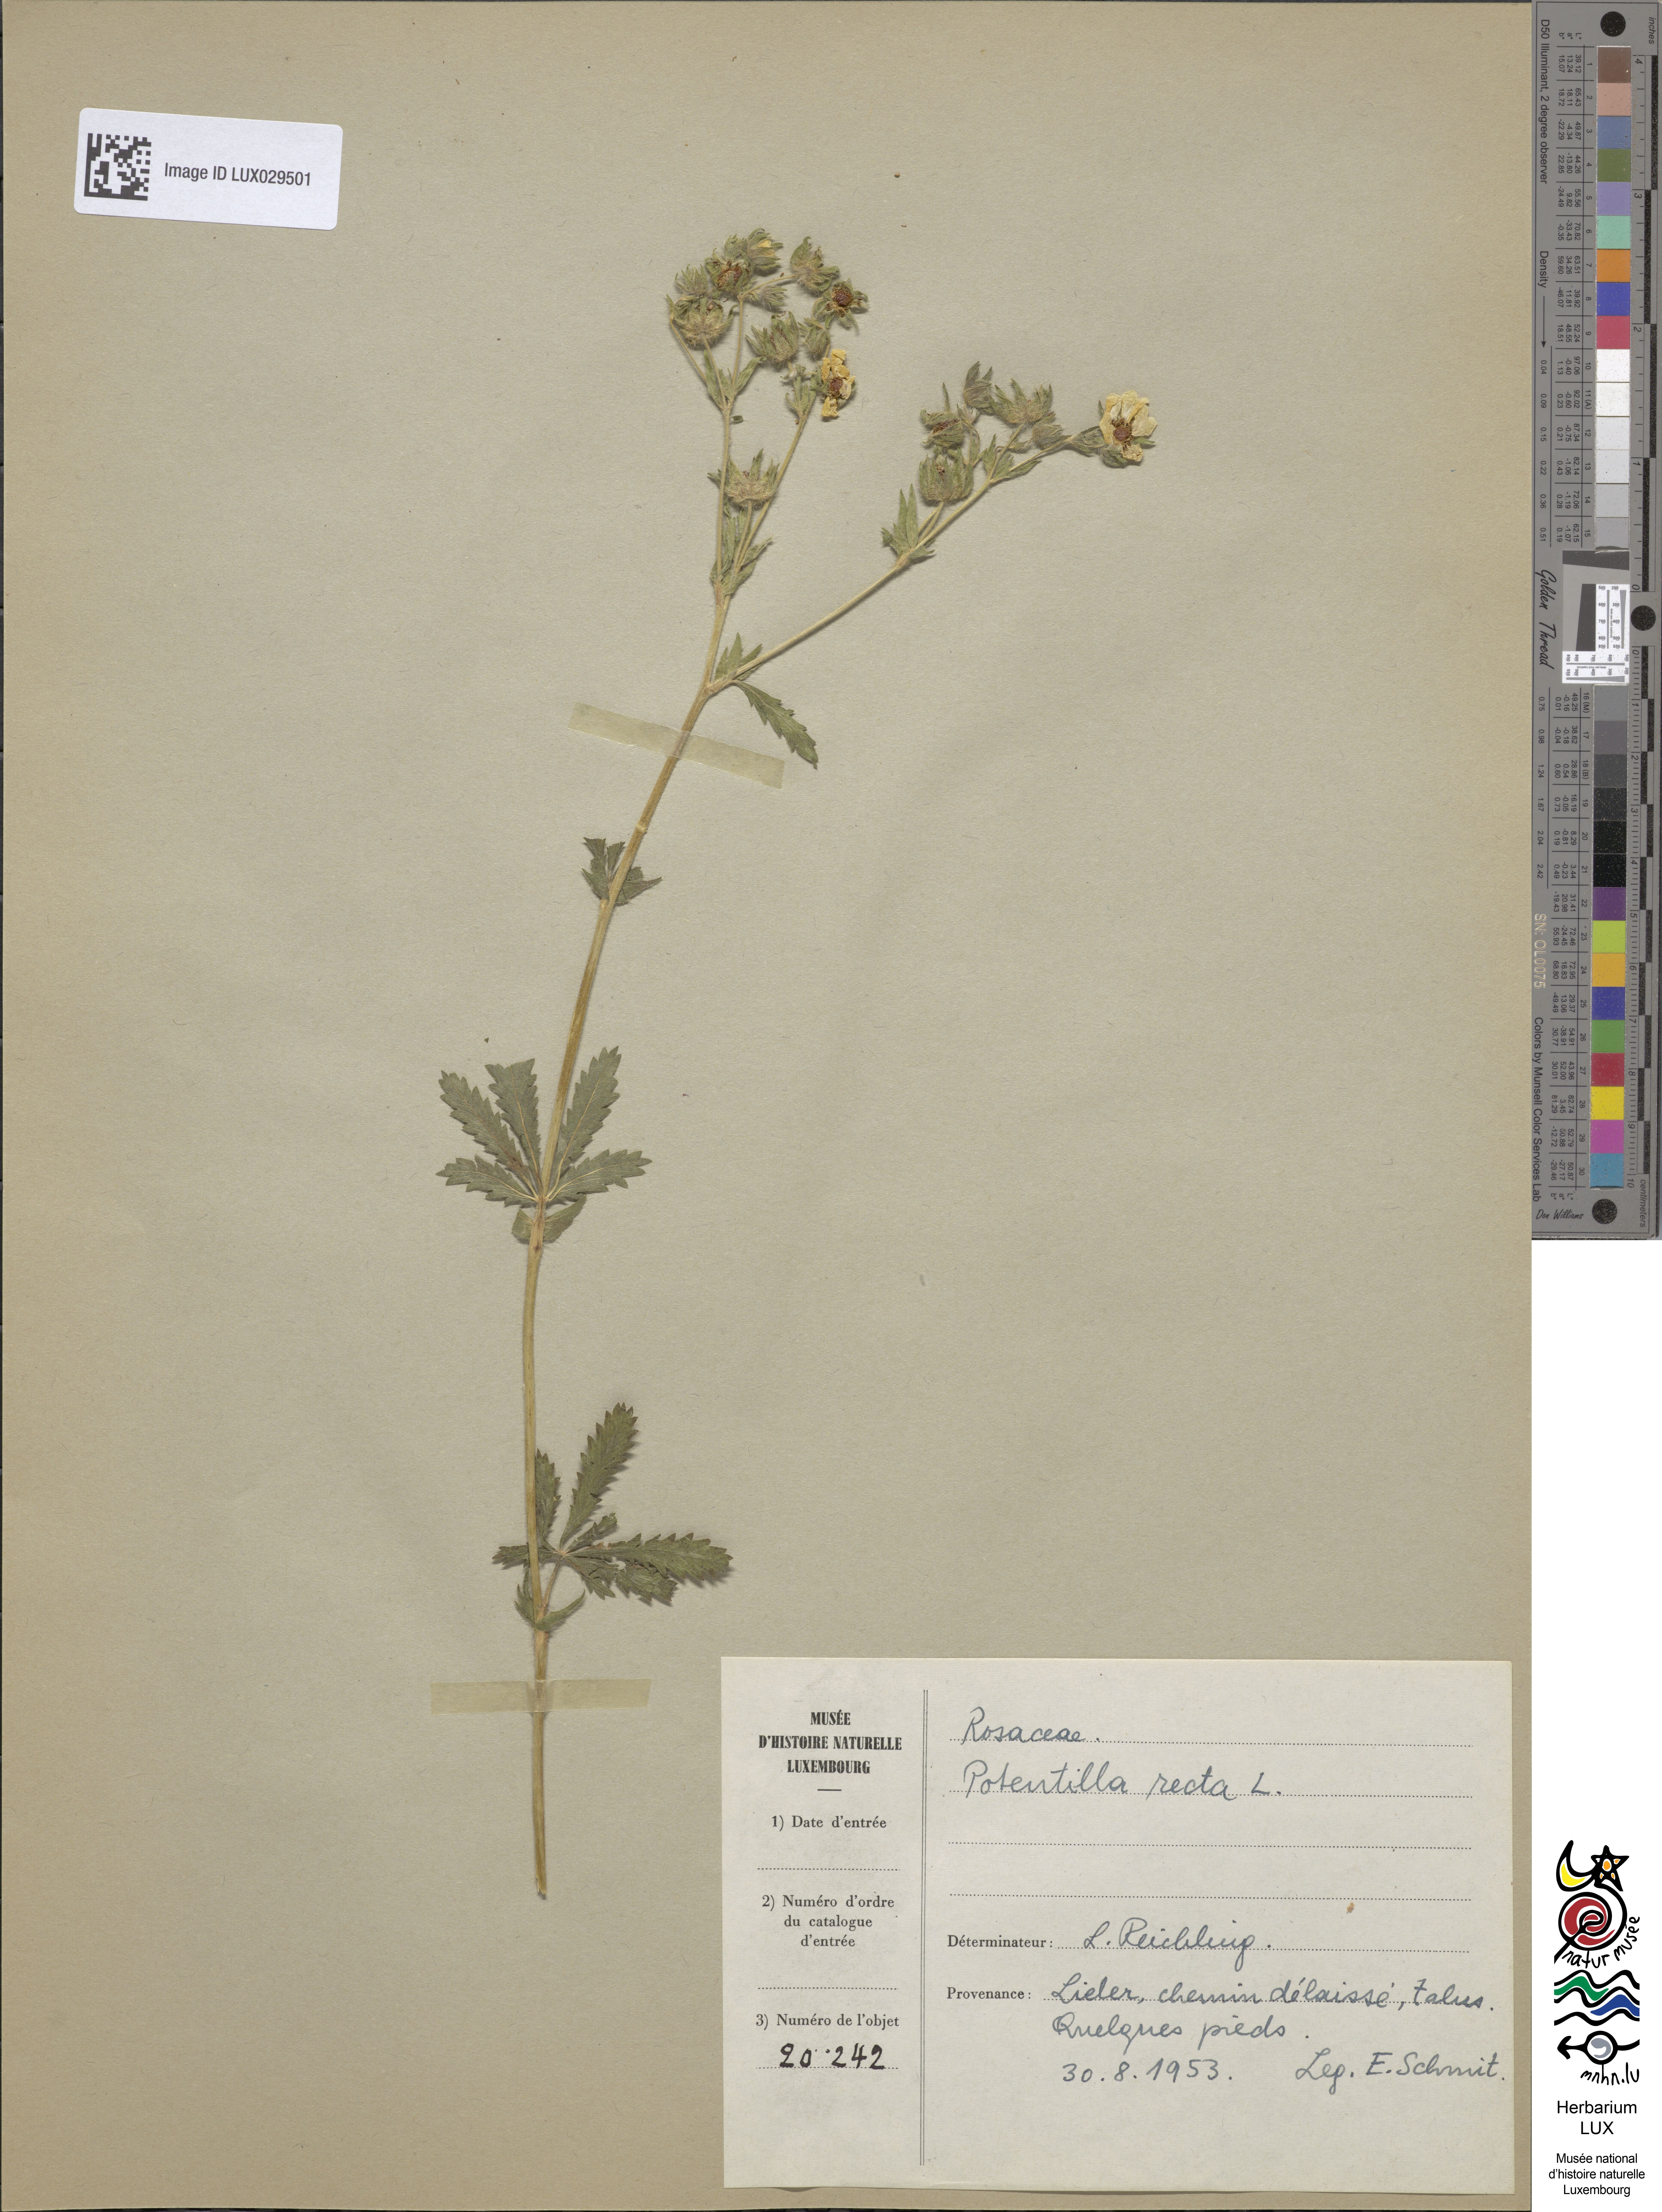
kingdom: Plantae
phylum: Tracheophyta
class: Magnoliopsida
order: Rosales
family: Rosaceae
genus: Potentilla
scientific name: Potentilla recta
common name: Sulphur cinquefoil
